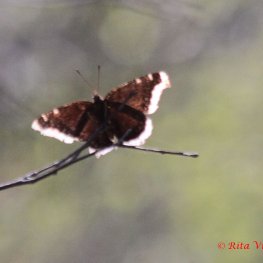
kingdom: Animalia
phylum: Arthropoda
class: Insecta
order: Lepidoptera
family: Nymphalidae
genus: Nymphalis
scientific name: Nymphalis antiopa
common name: Mourning Cloak
